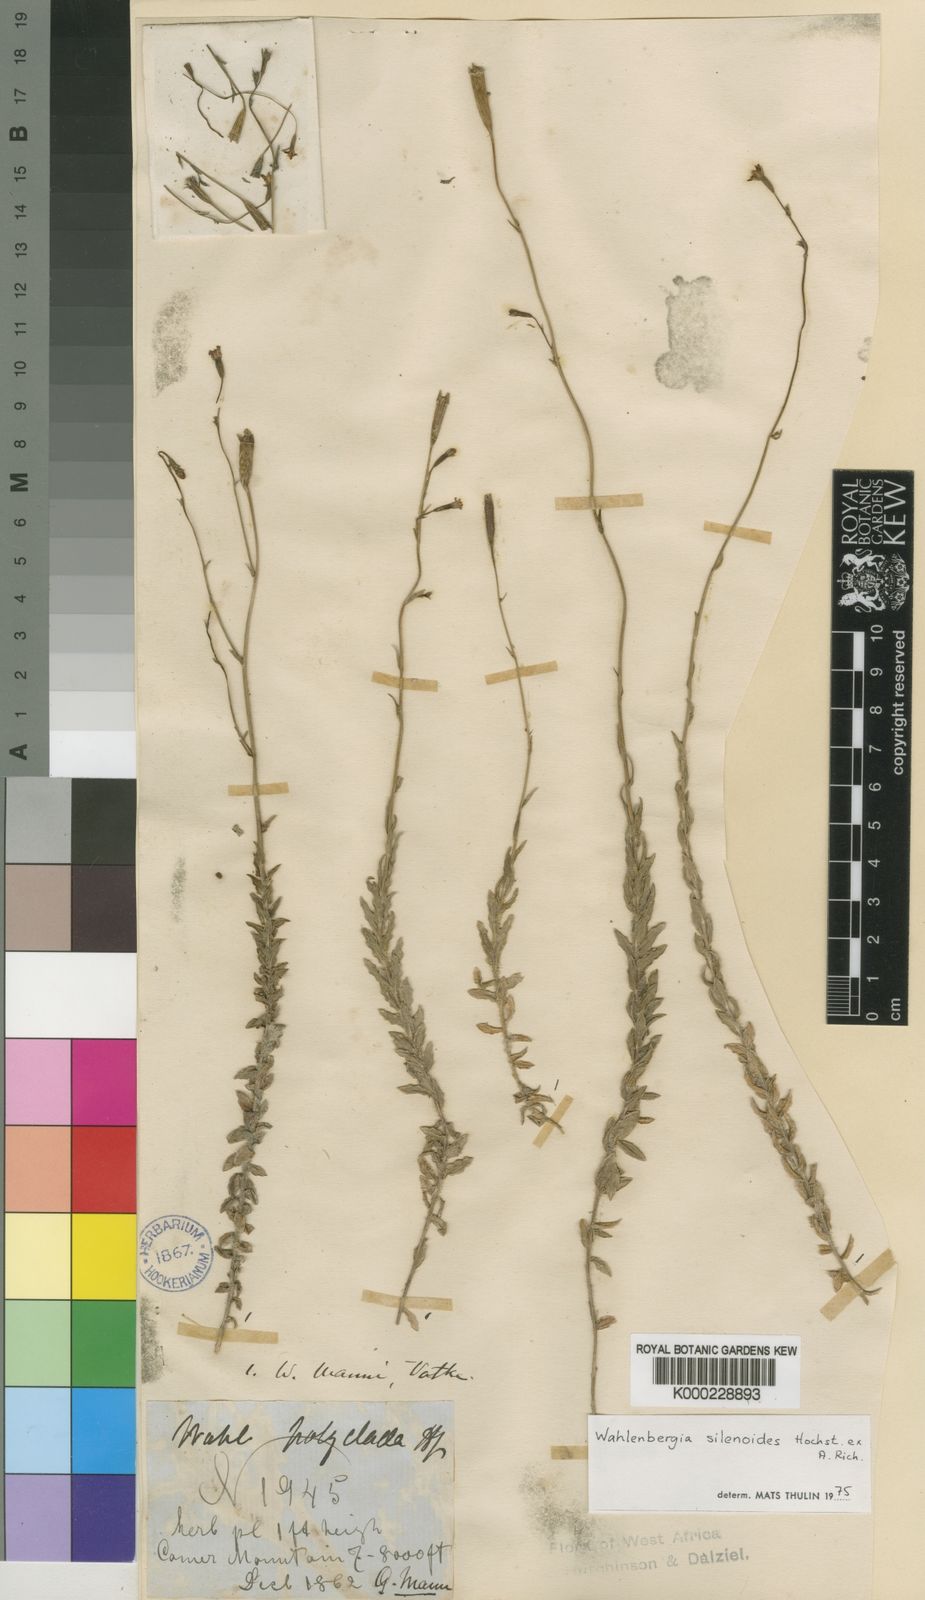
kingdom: Plantae
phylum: Tracheophyta
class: Magnoliopsida
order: Asterales
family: Campanulaceae
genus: Wahlenbergia
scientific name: Wahlenbergia silenoides
